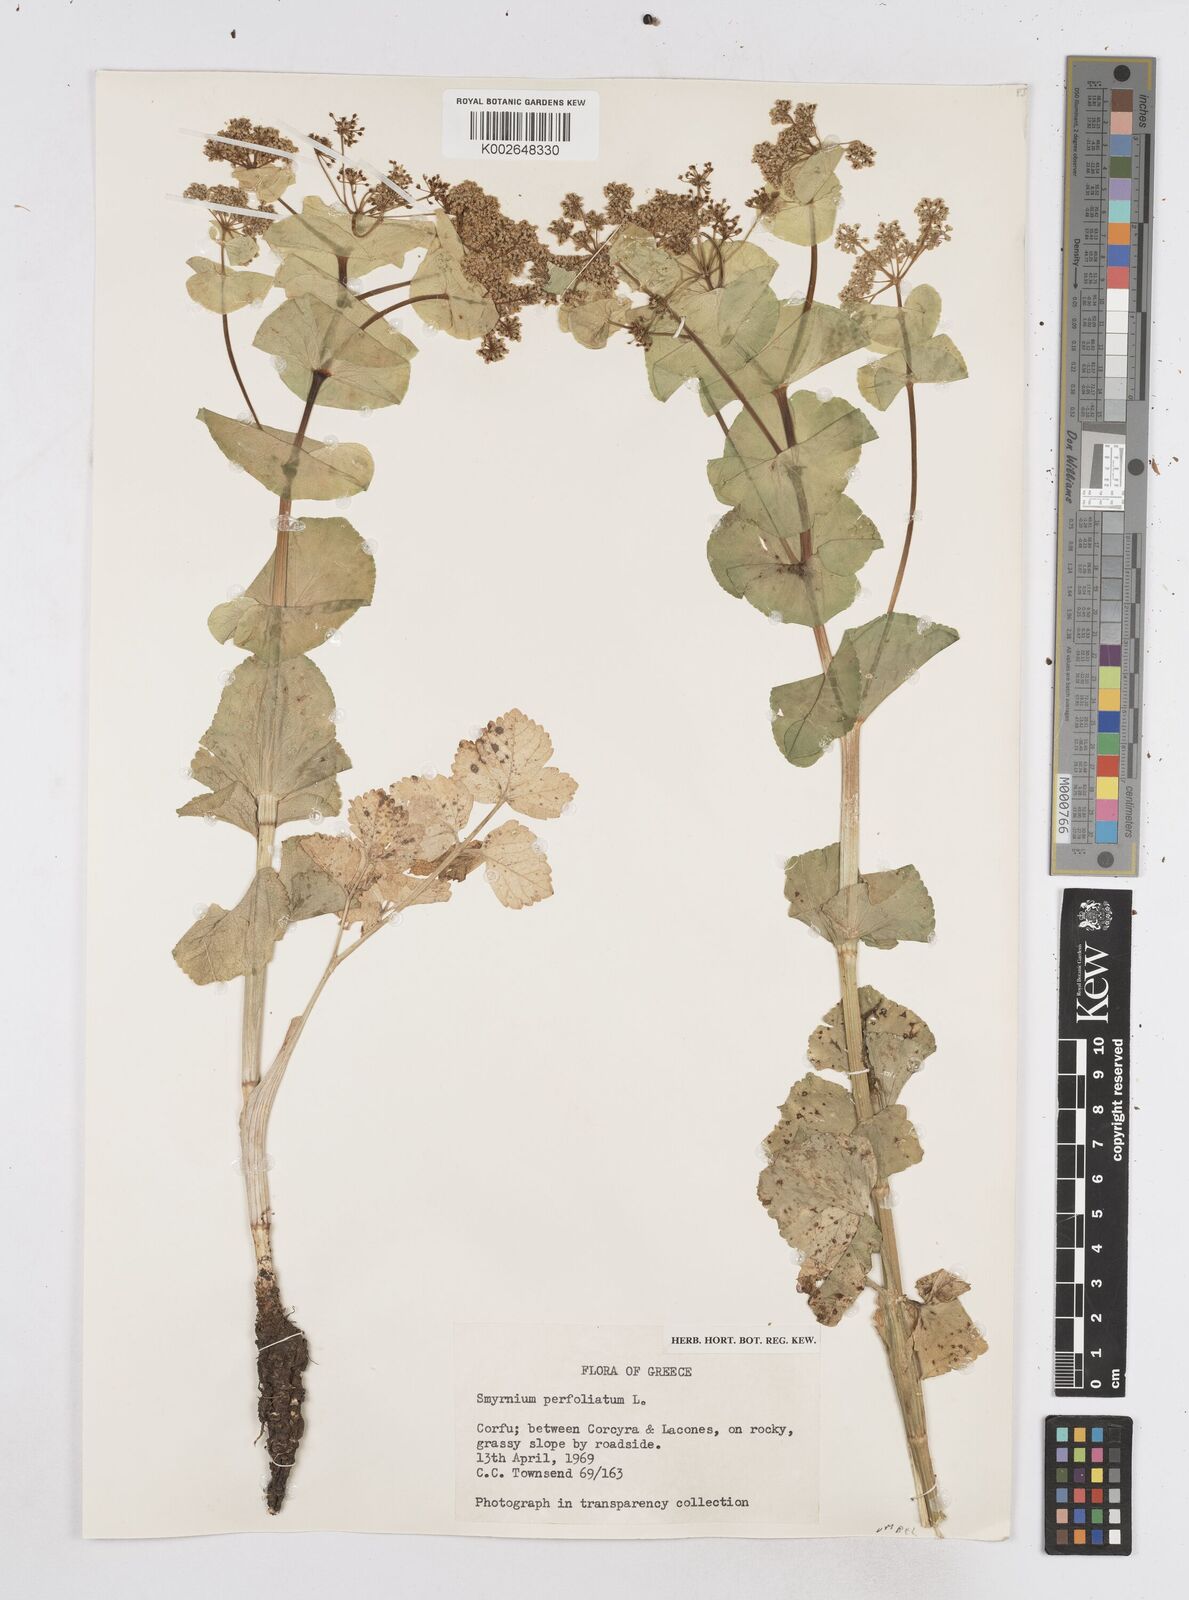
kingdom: Plantae
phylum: Tracheophyta
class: Magnoliopsida
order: Apiales
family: Apiaceae
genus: Smyrnium
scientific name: Smyrnium perfoliatum
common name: Perfoliate alexanders
